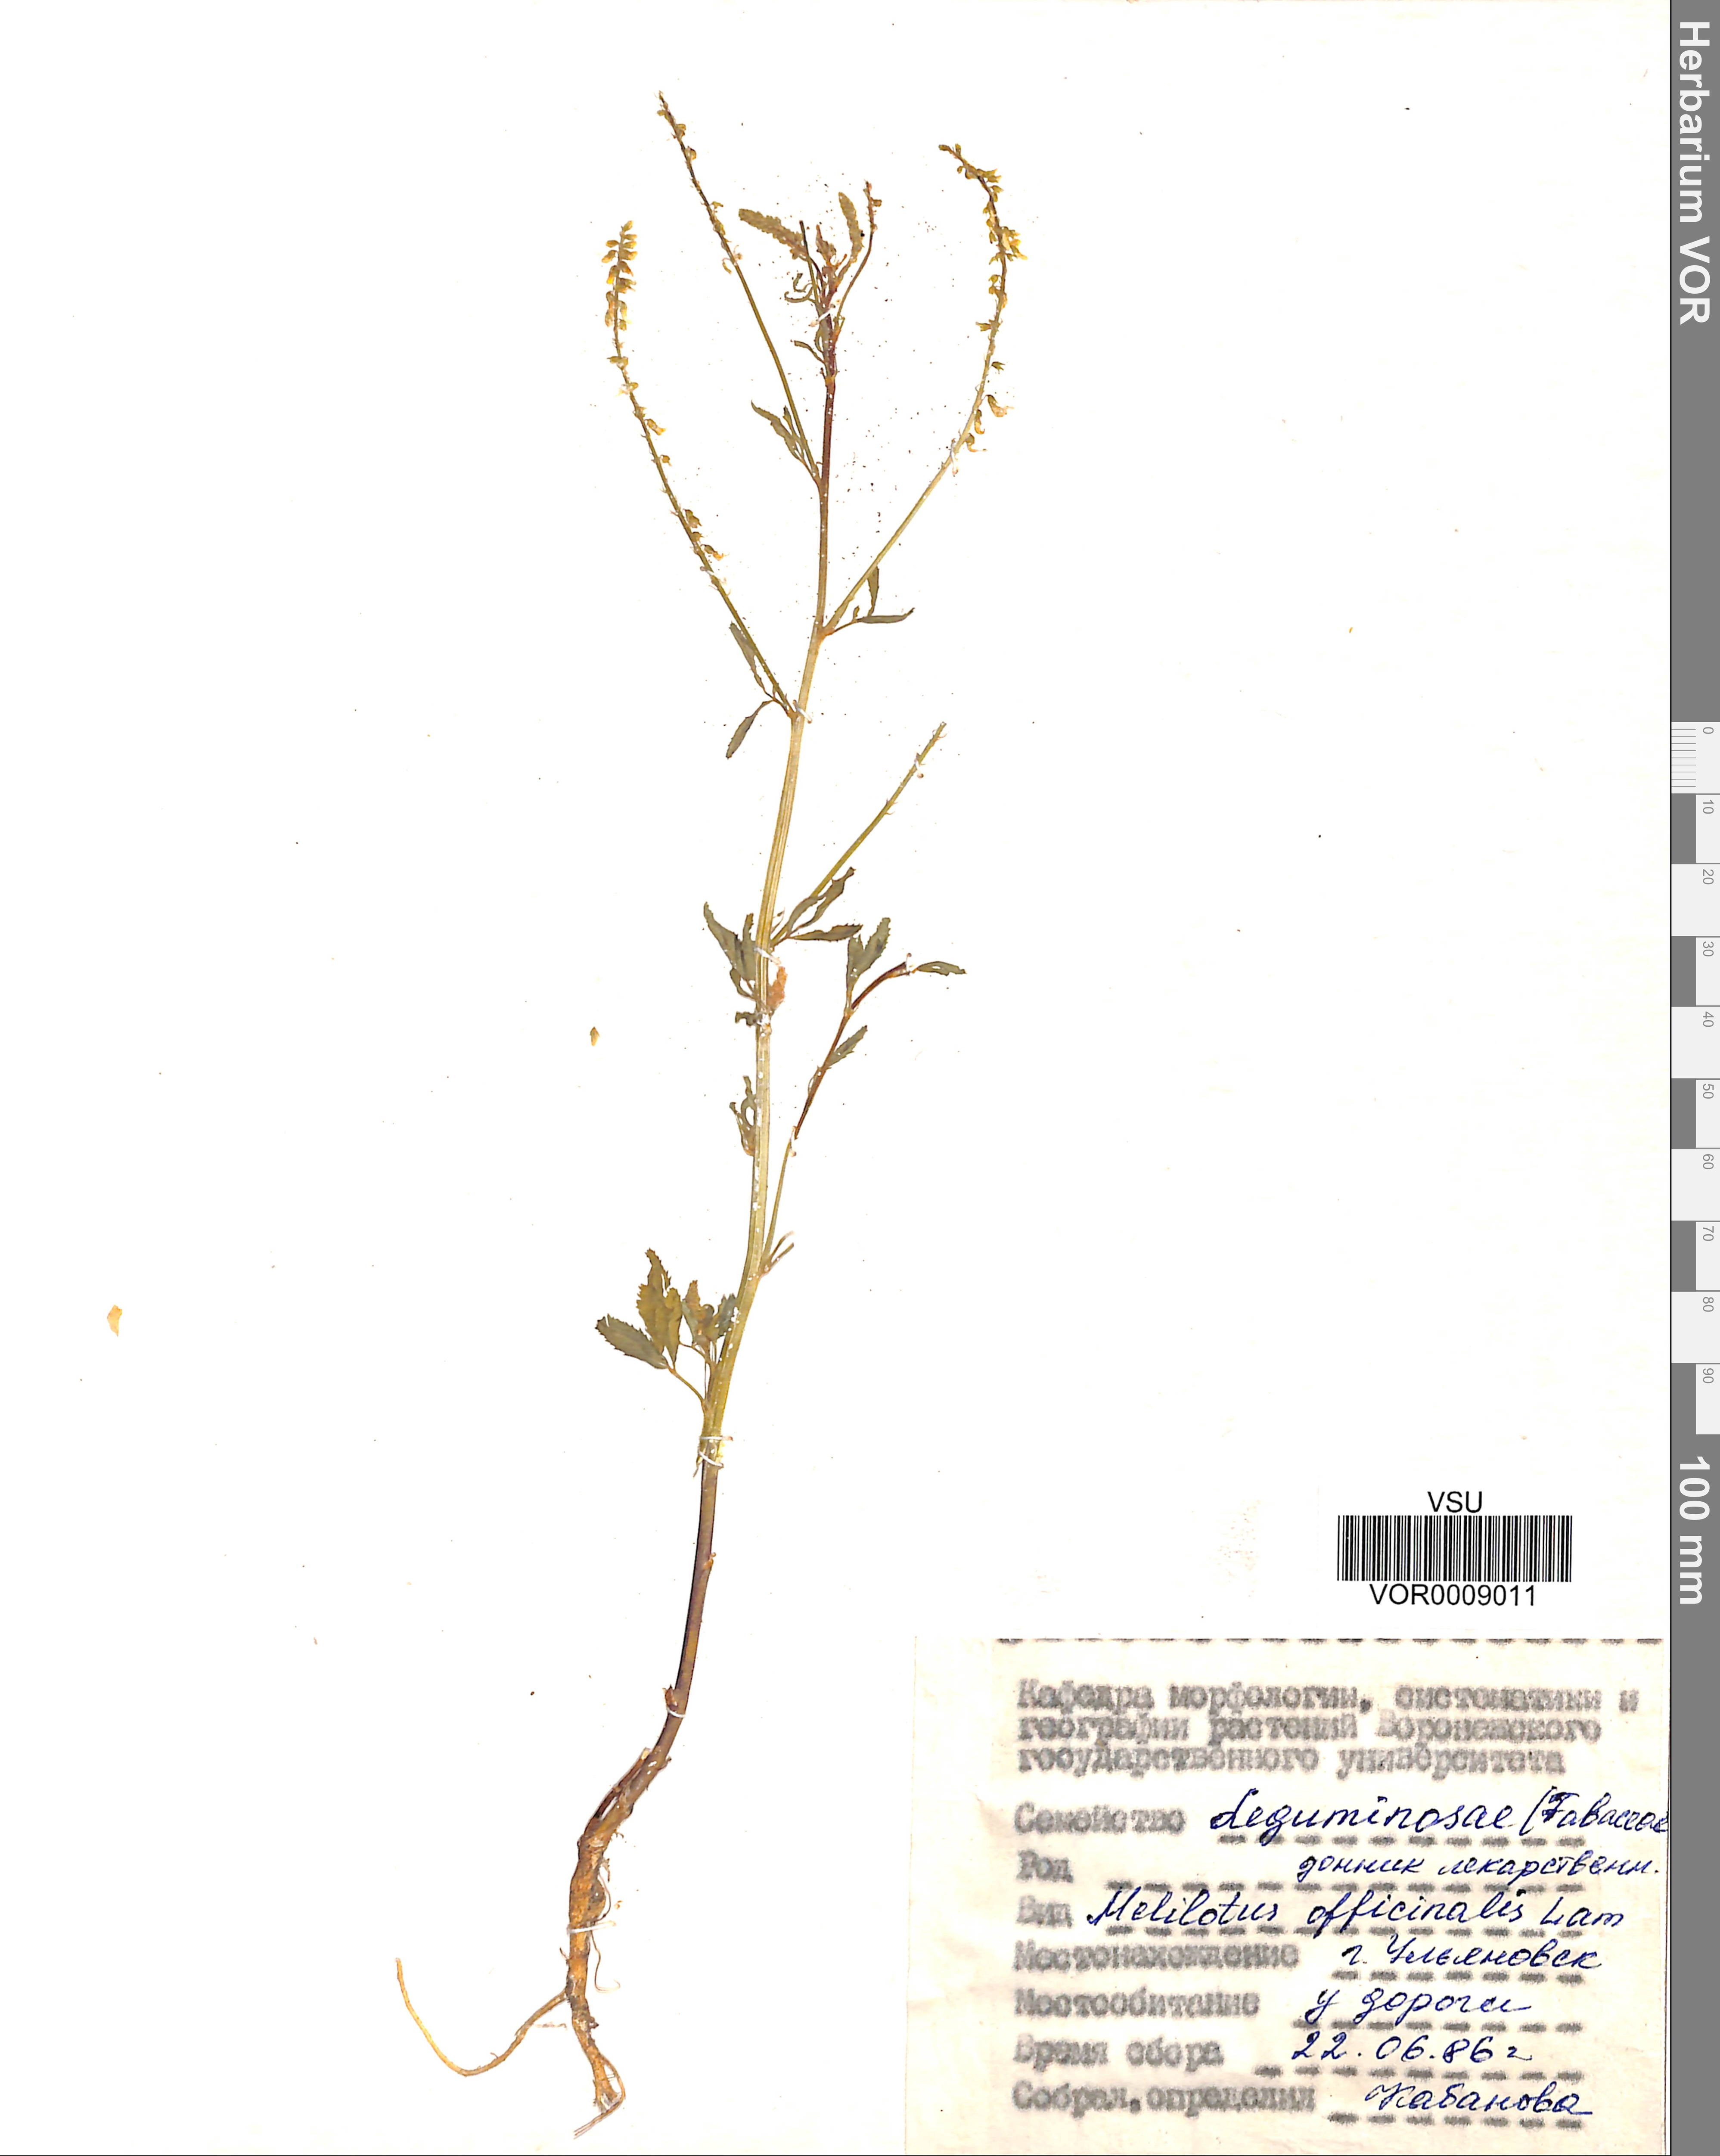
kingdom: Plantae
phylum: Tracheophyta
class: Magnoliopsida
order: Fabales
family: Fabaceae
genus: Melilotus
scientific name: Melilotus officinalis
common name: Sweetclover
